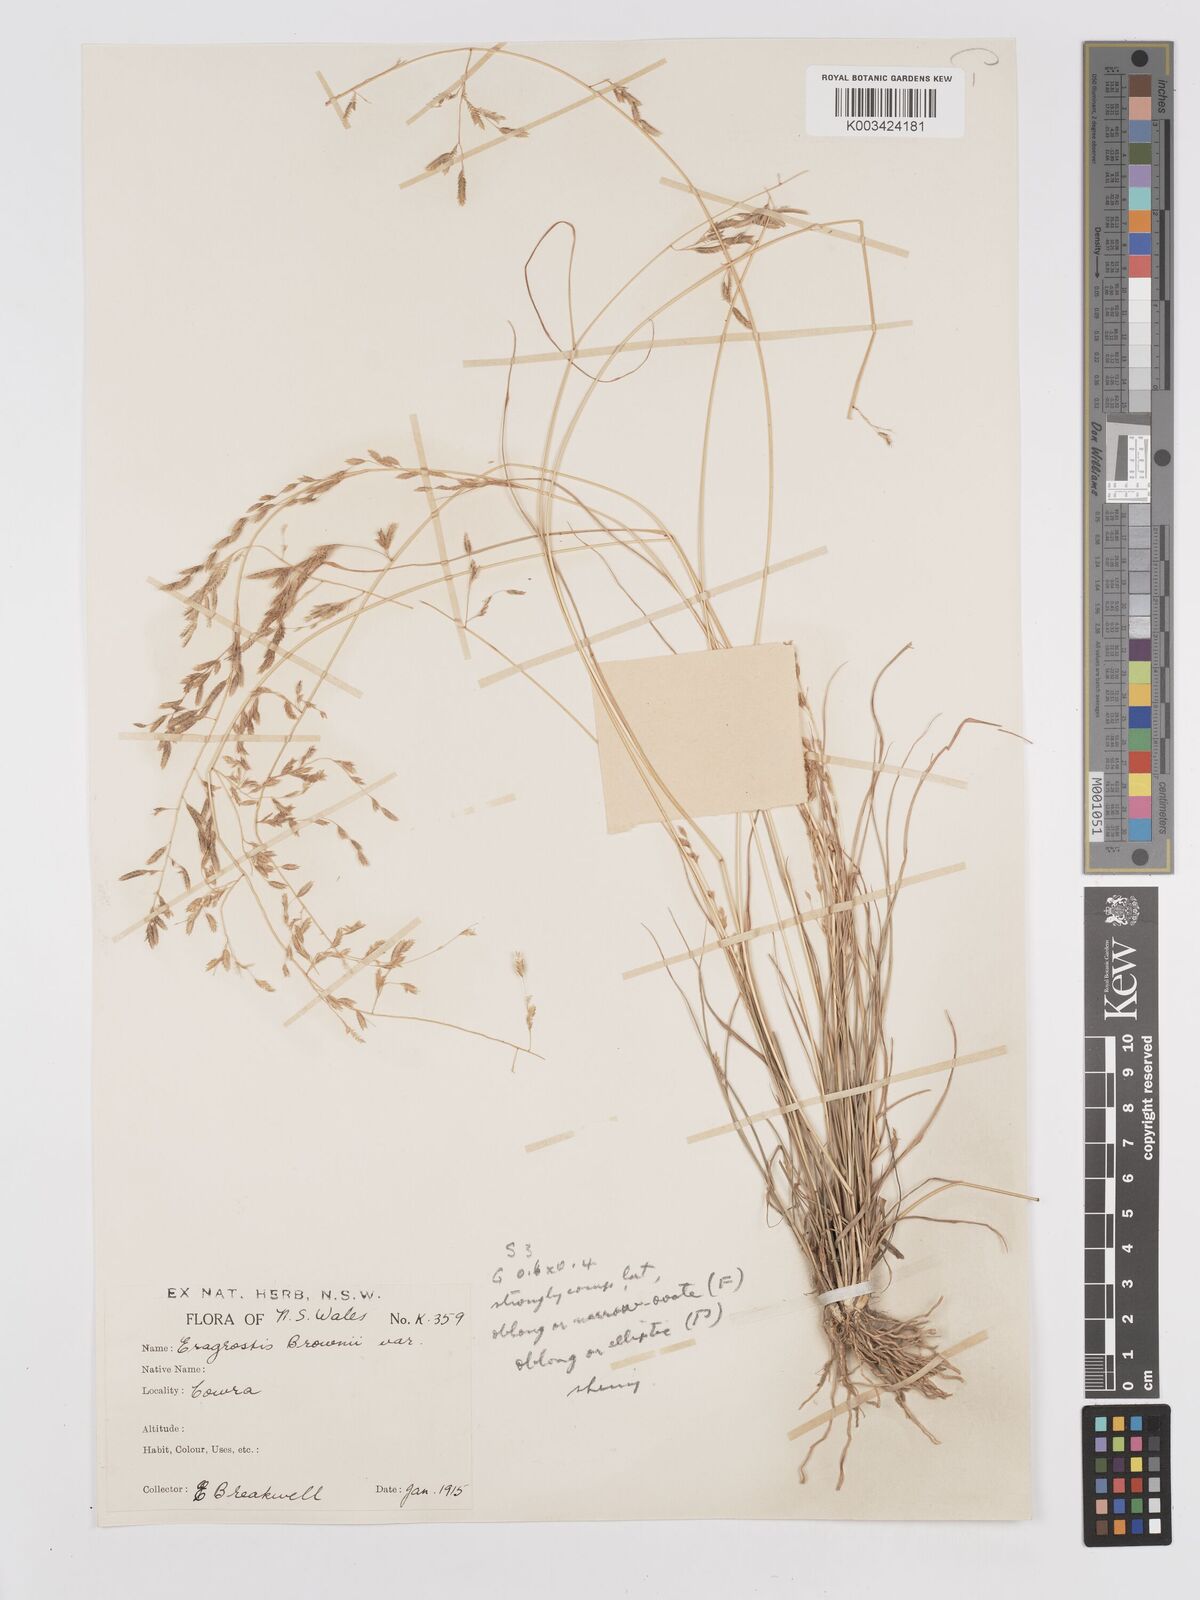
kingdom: Plantae
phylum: Tracheophyta
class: Liliopsida
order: Poales
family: Poaceae
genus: Eragrostis
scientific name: Eragrostis brownii
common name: Lovegrass
